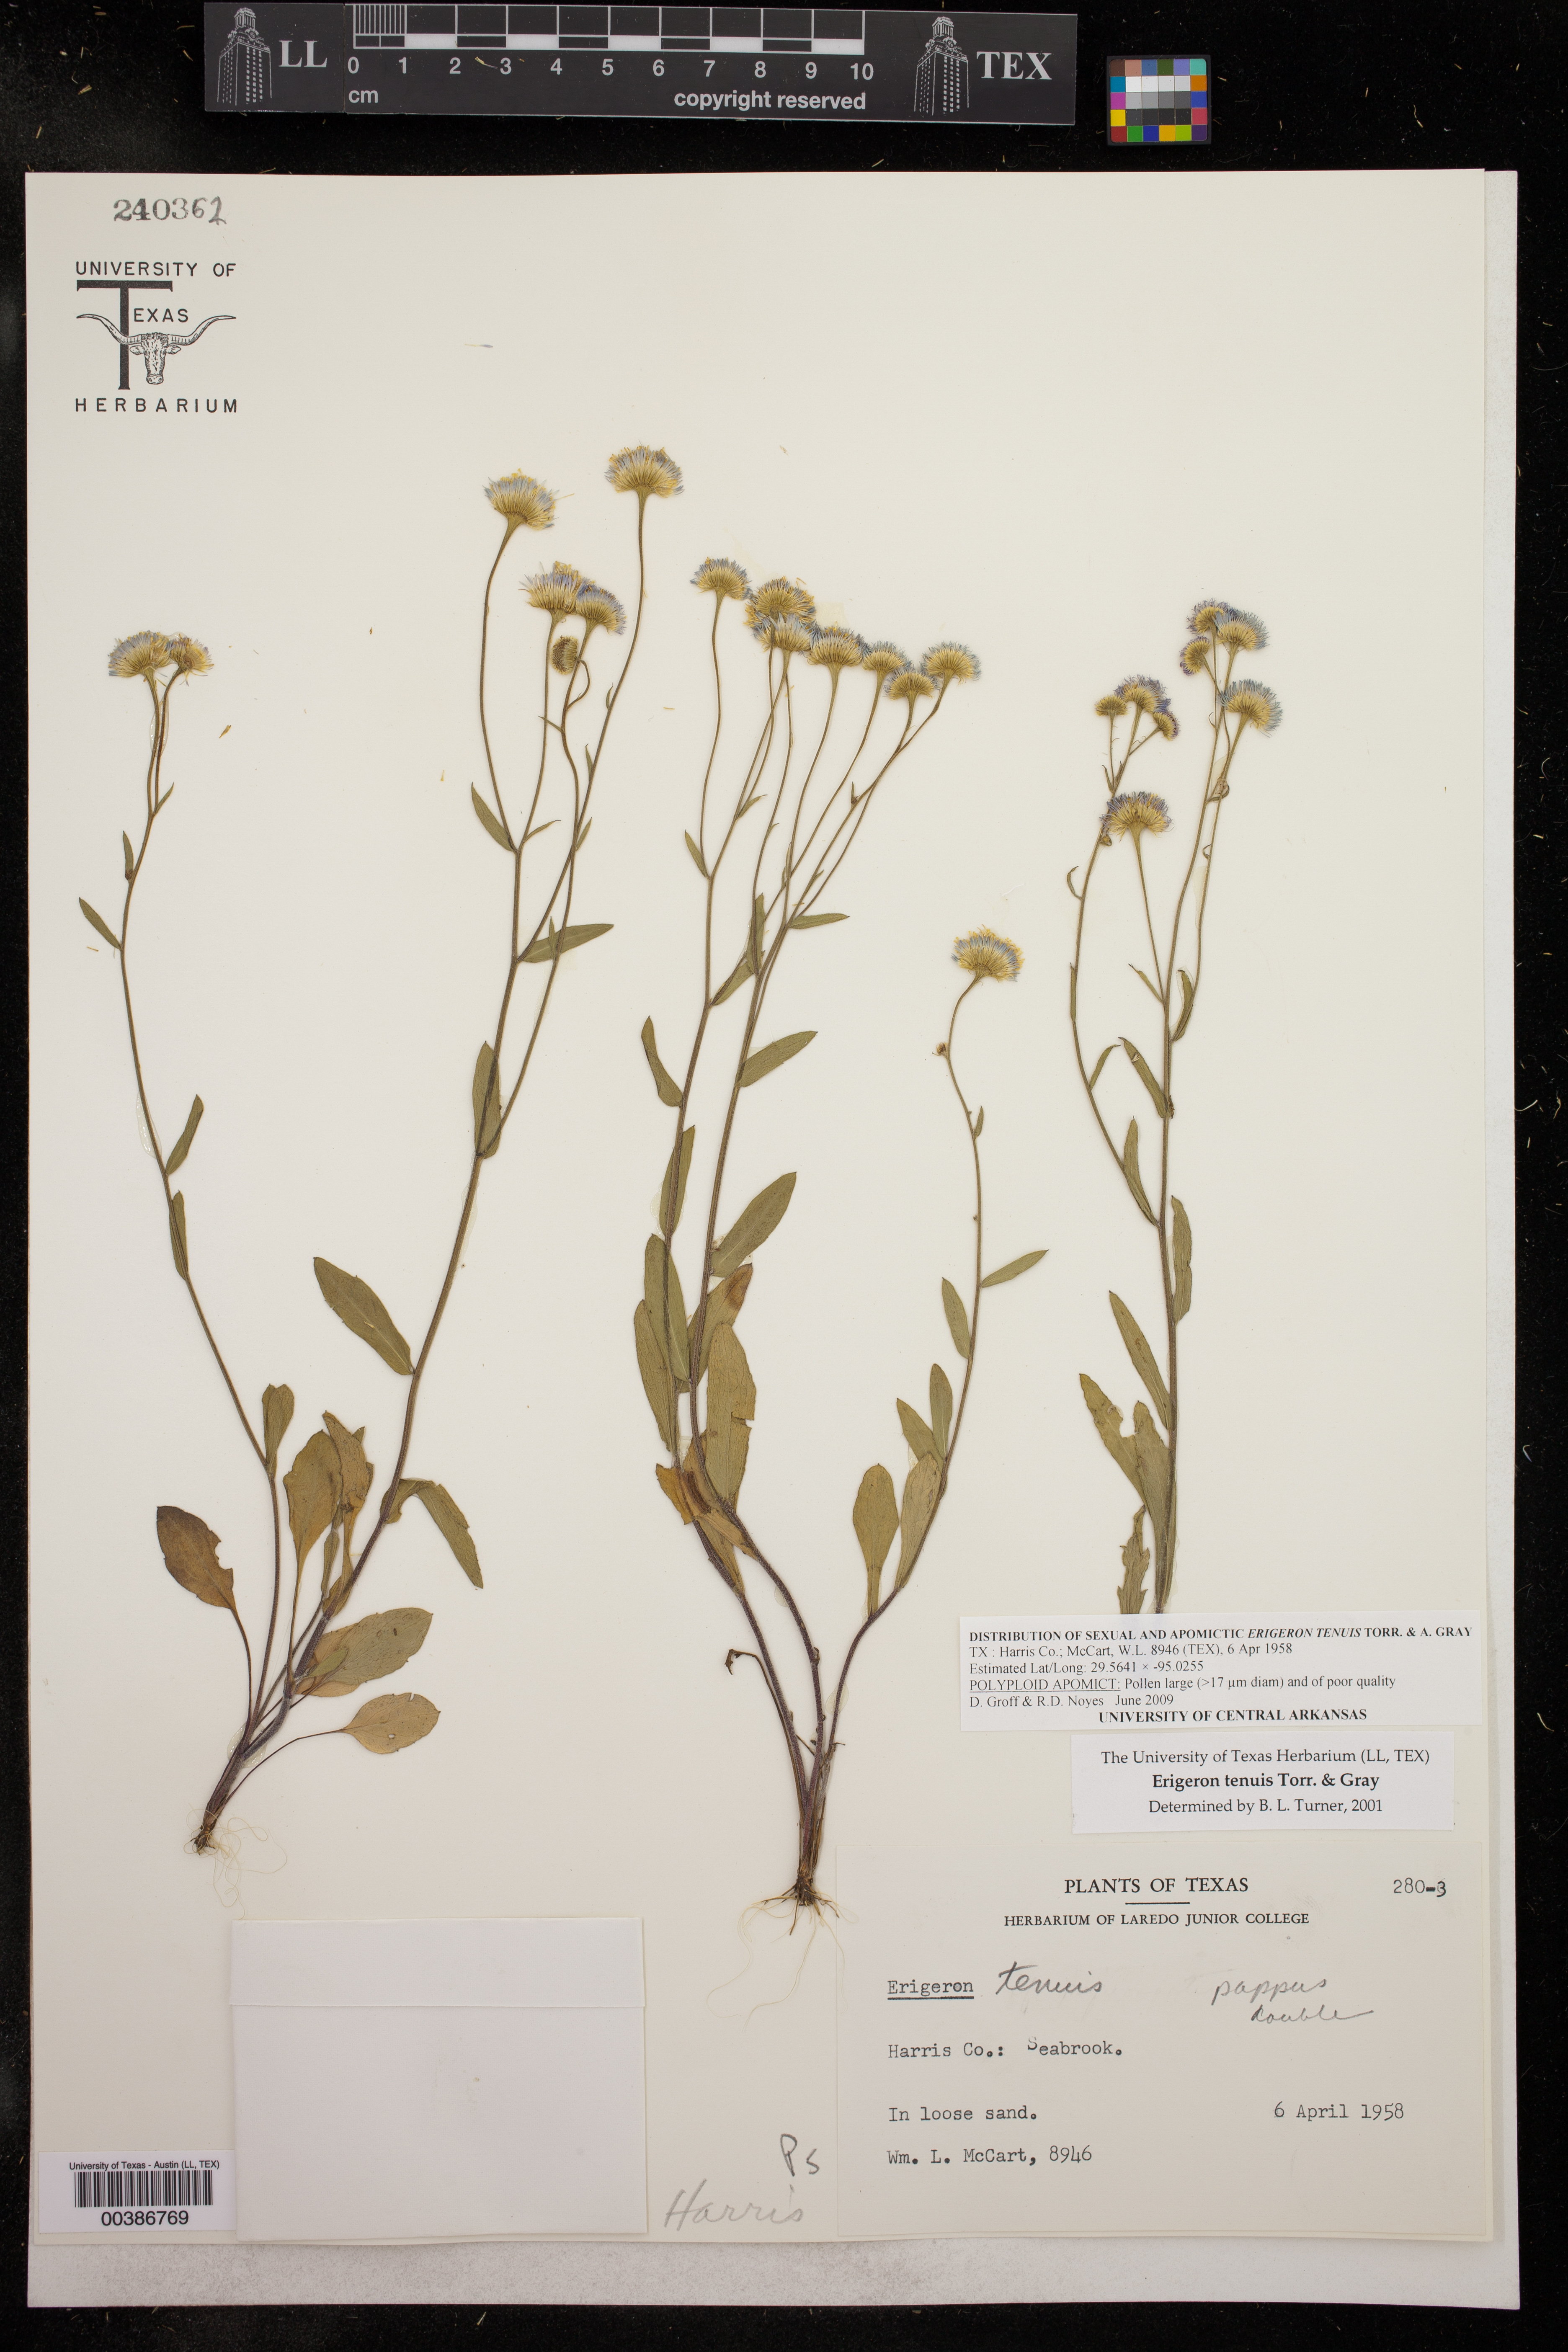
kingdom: Plantae
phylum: Tracheophyta
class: Magnoliopsida
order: Asterales
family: Asteraceae
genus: Erigeron
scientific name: Erigeron tenuis
